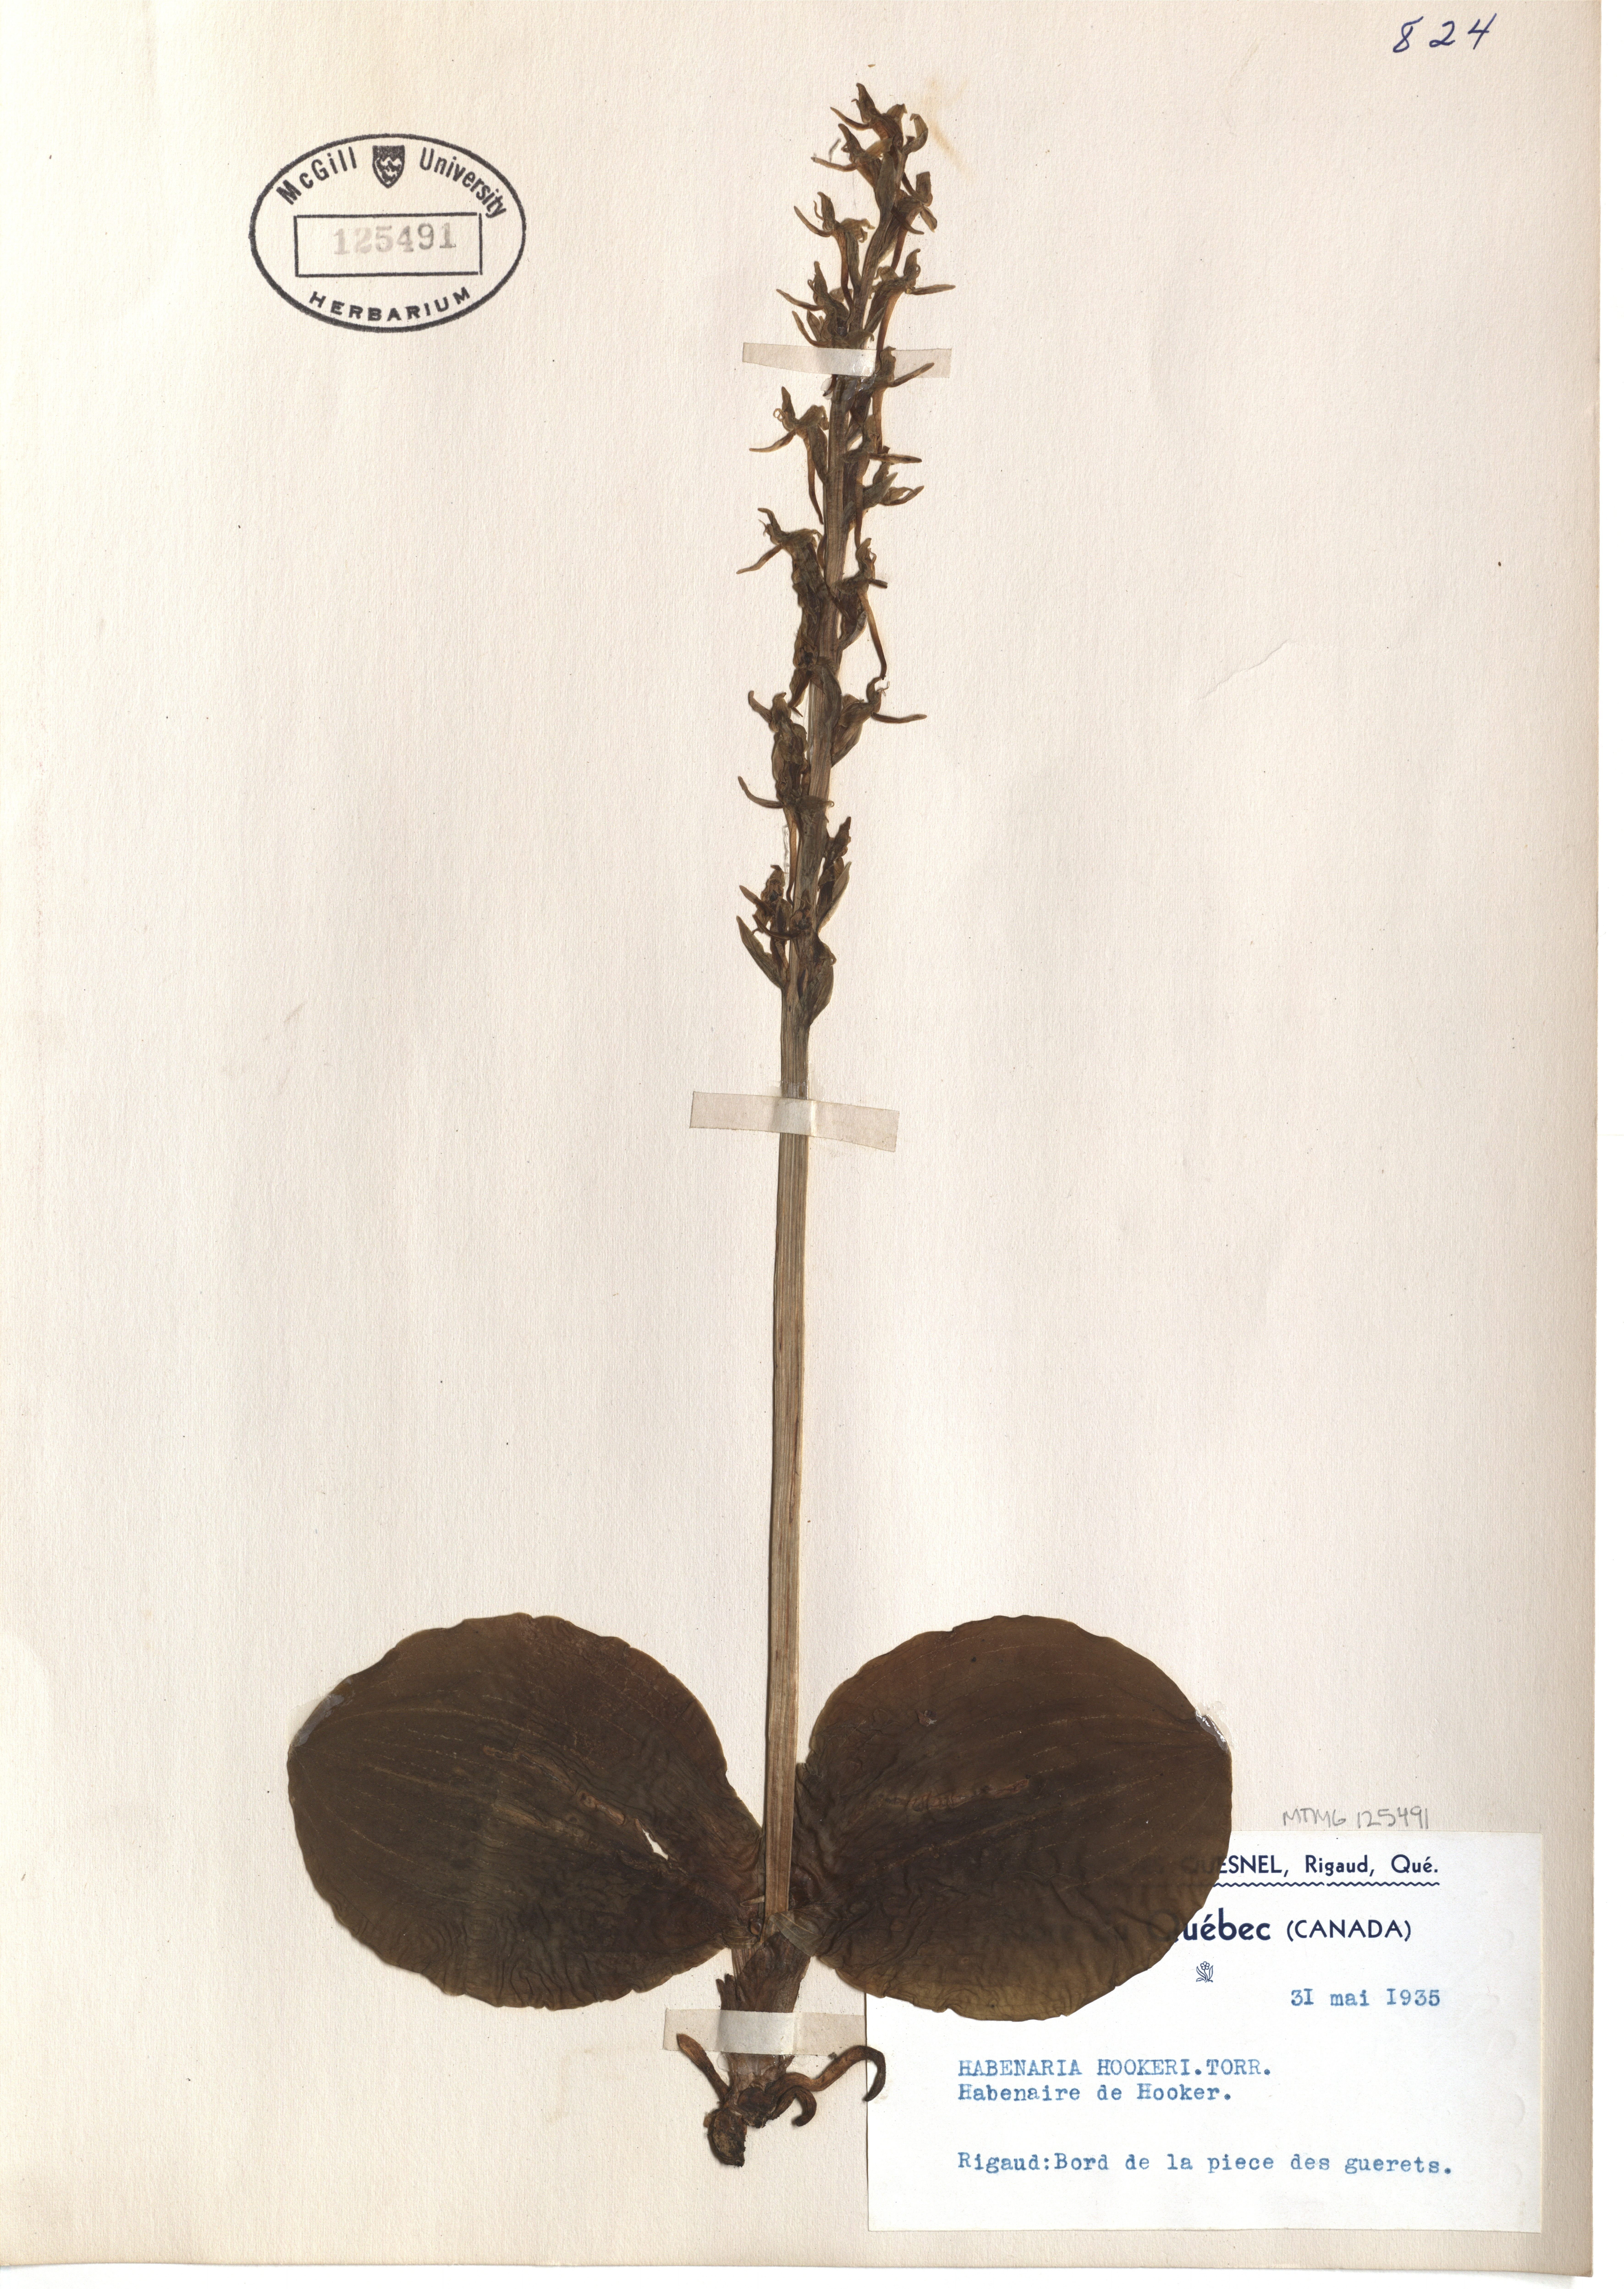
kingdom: Plantae
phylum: Tracheophyta
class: Liliopsida
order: Asparagales
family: Orchidaceae
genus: Platanthera
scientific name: Platanthera hookeri
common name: Hooker's orchid
